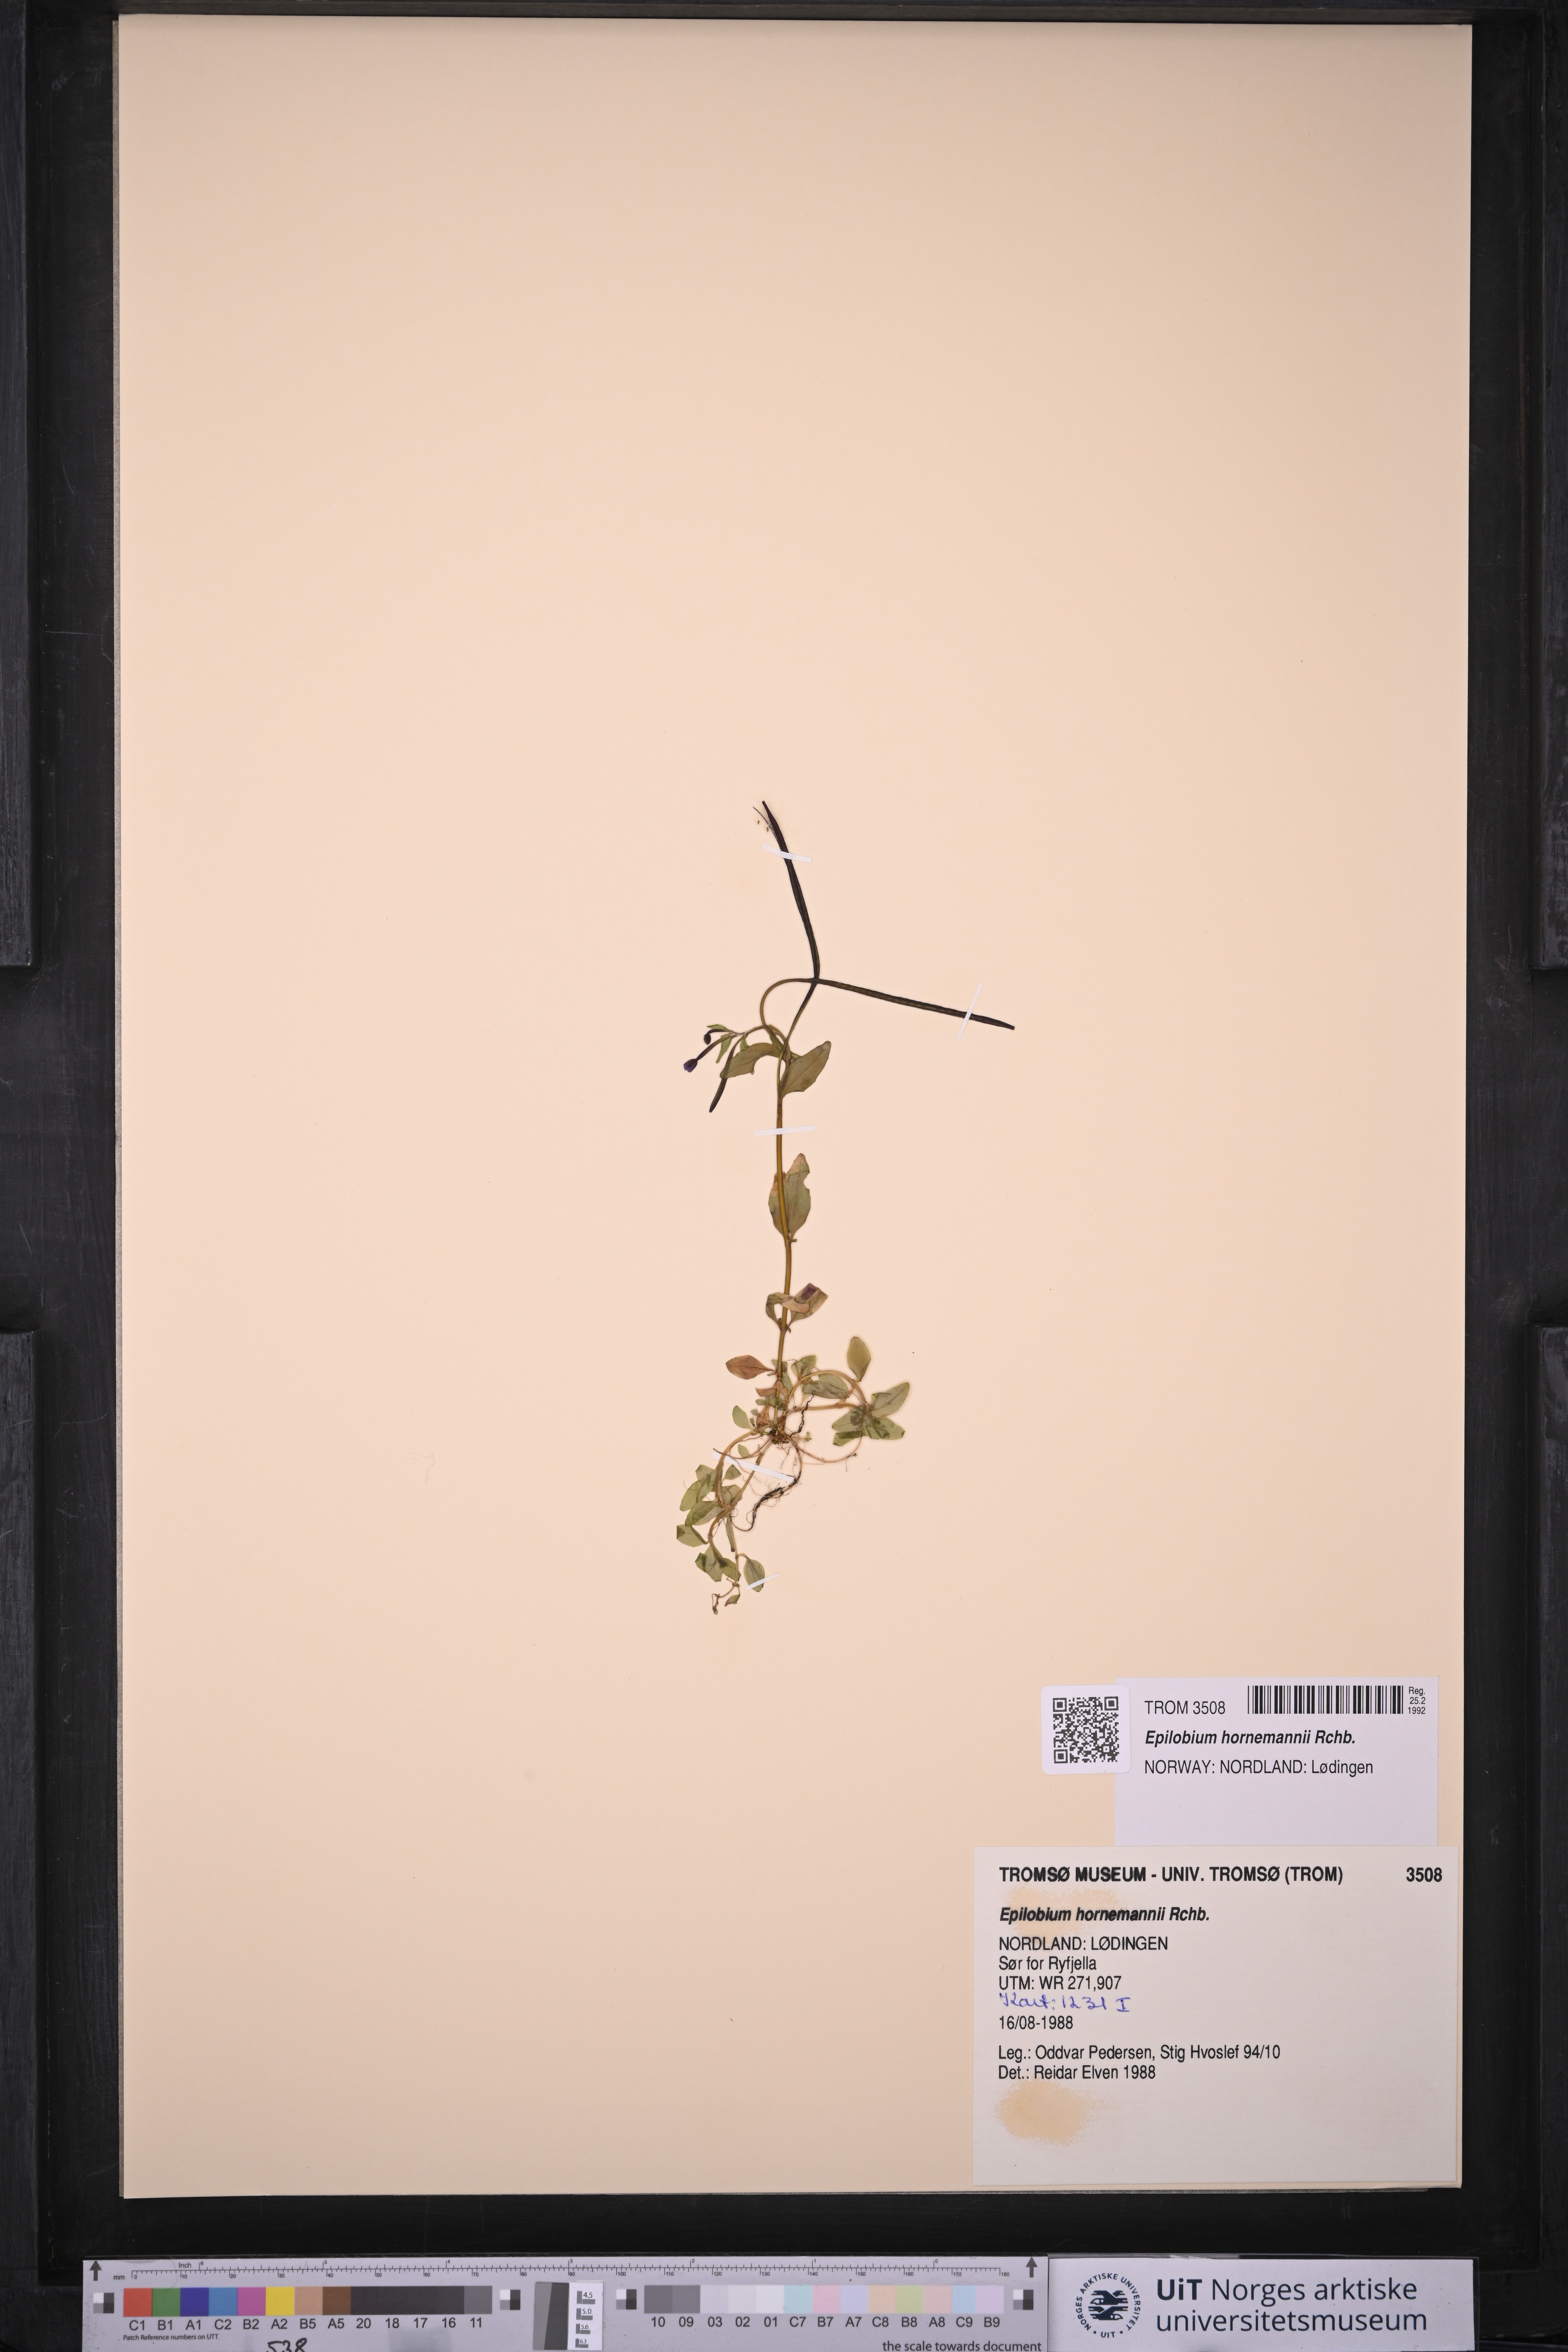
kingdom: Plantae
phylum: Tracheophyta
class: Magnoliopsida
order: Myrtales
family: Onagraceae
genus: Epilobium
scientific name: Epilobium hornemannii
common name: Hornemann's willowherb
